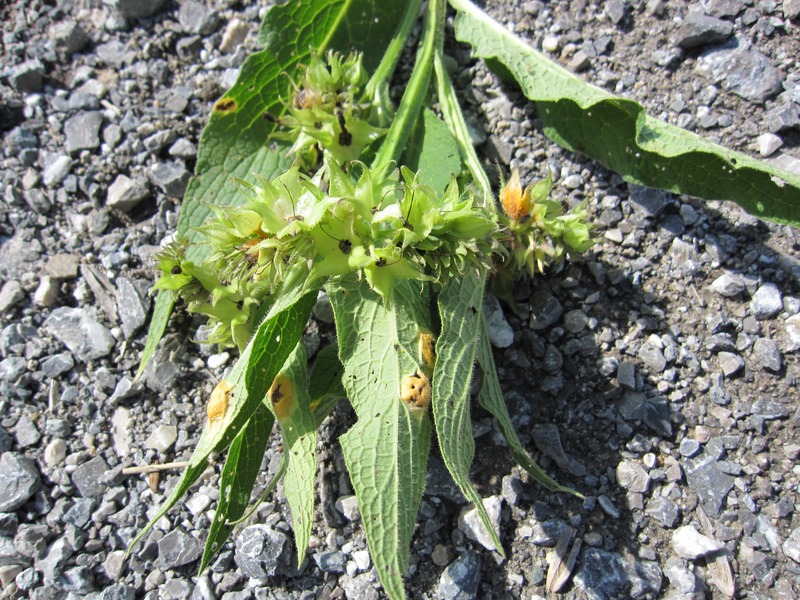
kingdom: Fungi
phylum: Basidiomycota
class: Pucciniomycetes
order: Pucciniales
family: Pucciniaceae
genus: Puccinia
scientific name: Puccinia recondita
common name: Brown rust of wheat
